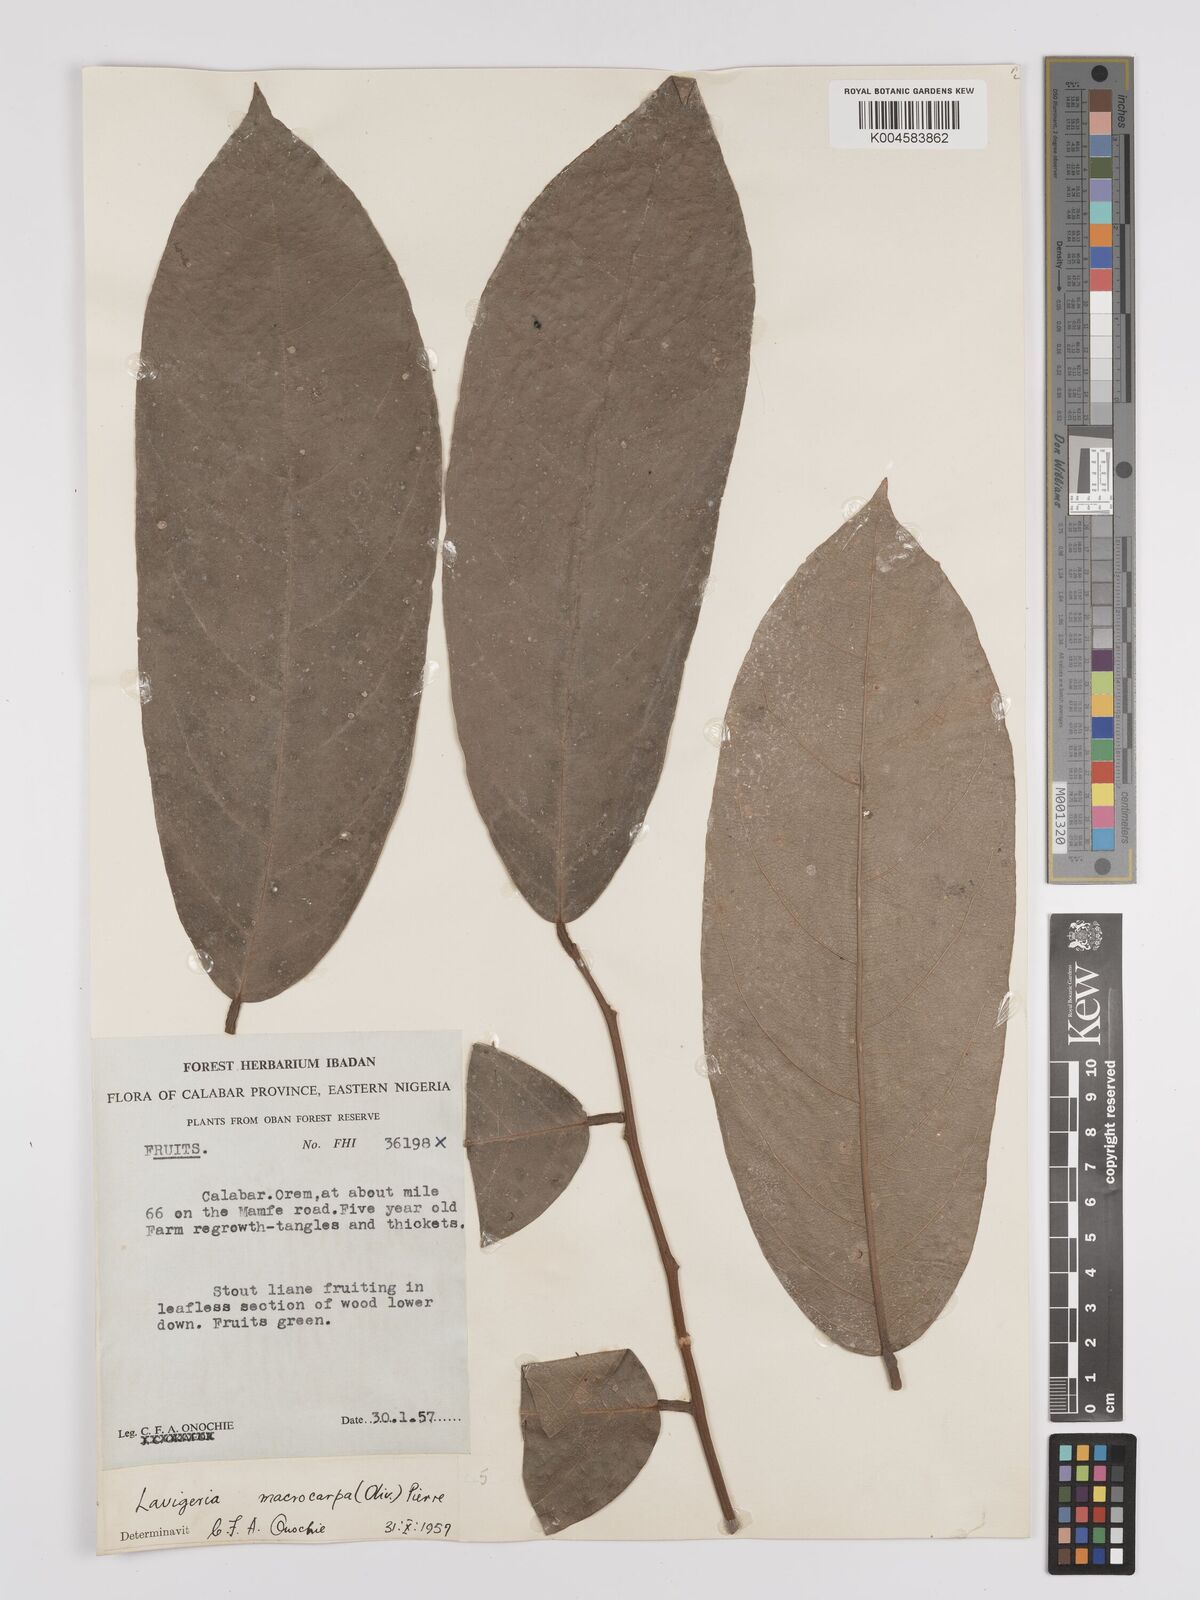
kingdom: Plantae
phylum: Tracheophyta
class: Magnoliopsida
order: Icacinales
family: Icacinaceae
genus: Lavigeria
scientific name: Lavigeria macrocarpa
